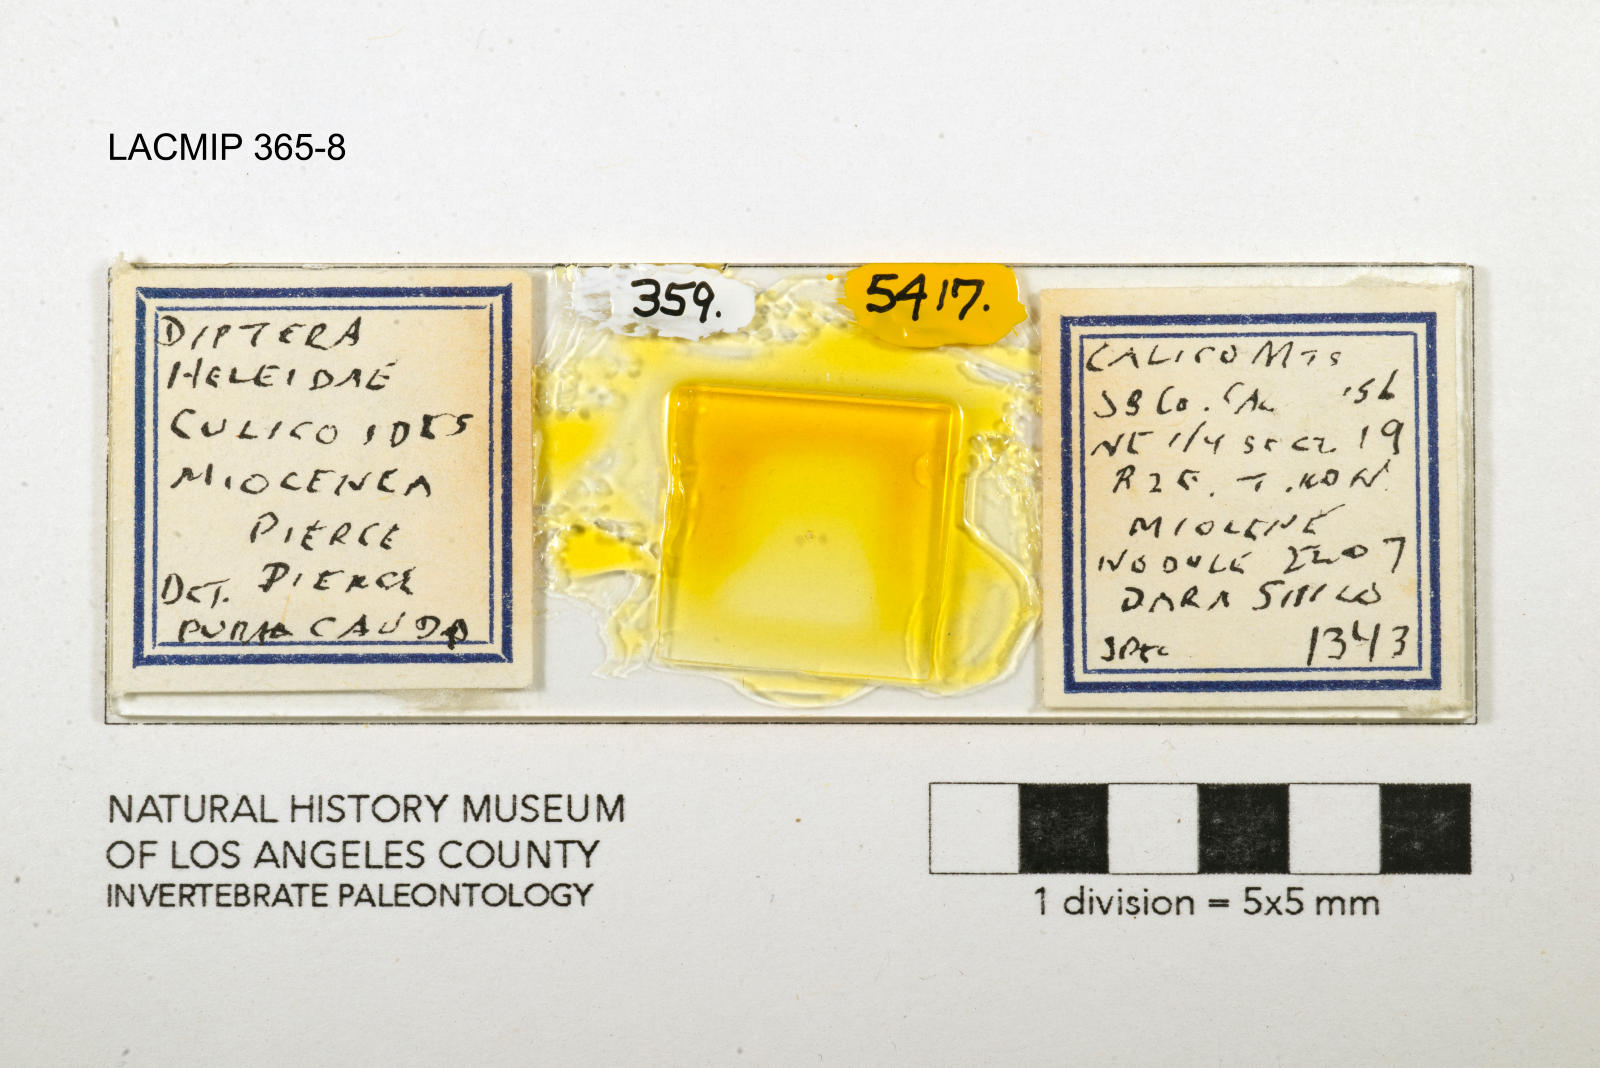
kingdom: Animalia
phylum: Arthropoda
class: Insecta
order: Diptera
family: Ceratopogonidae
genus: Culicoides
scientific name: Culicoides miocenicus
